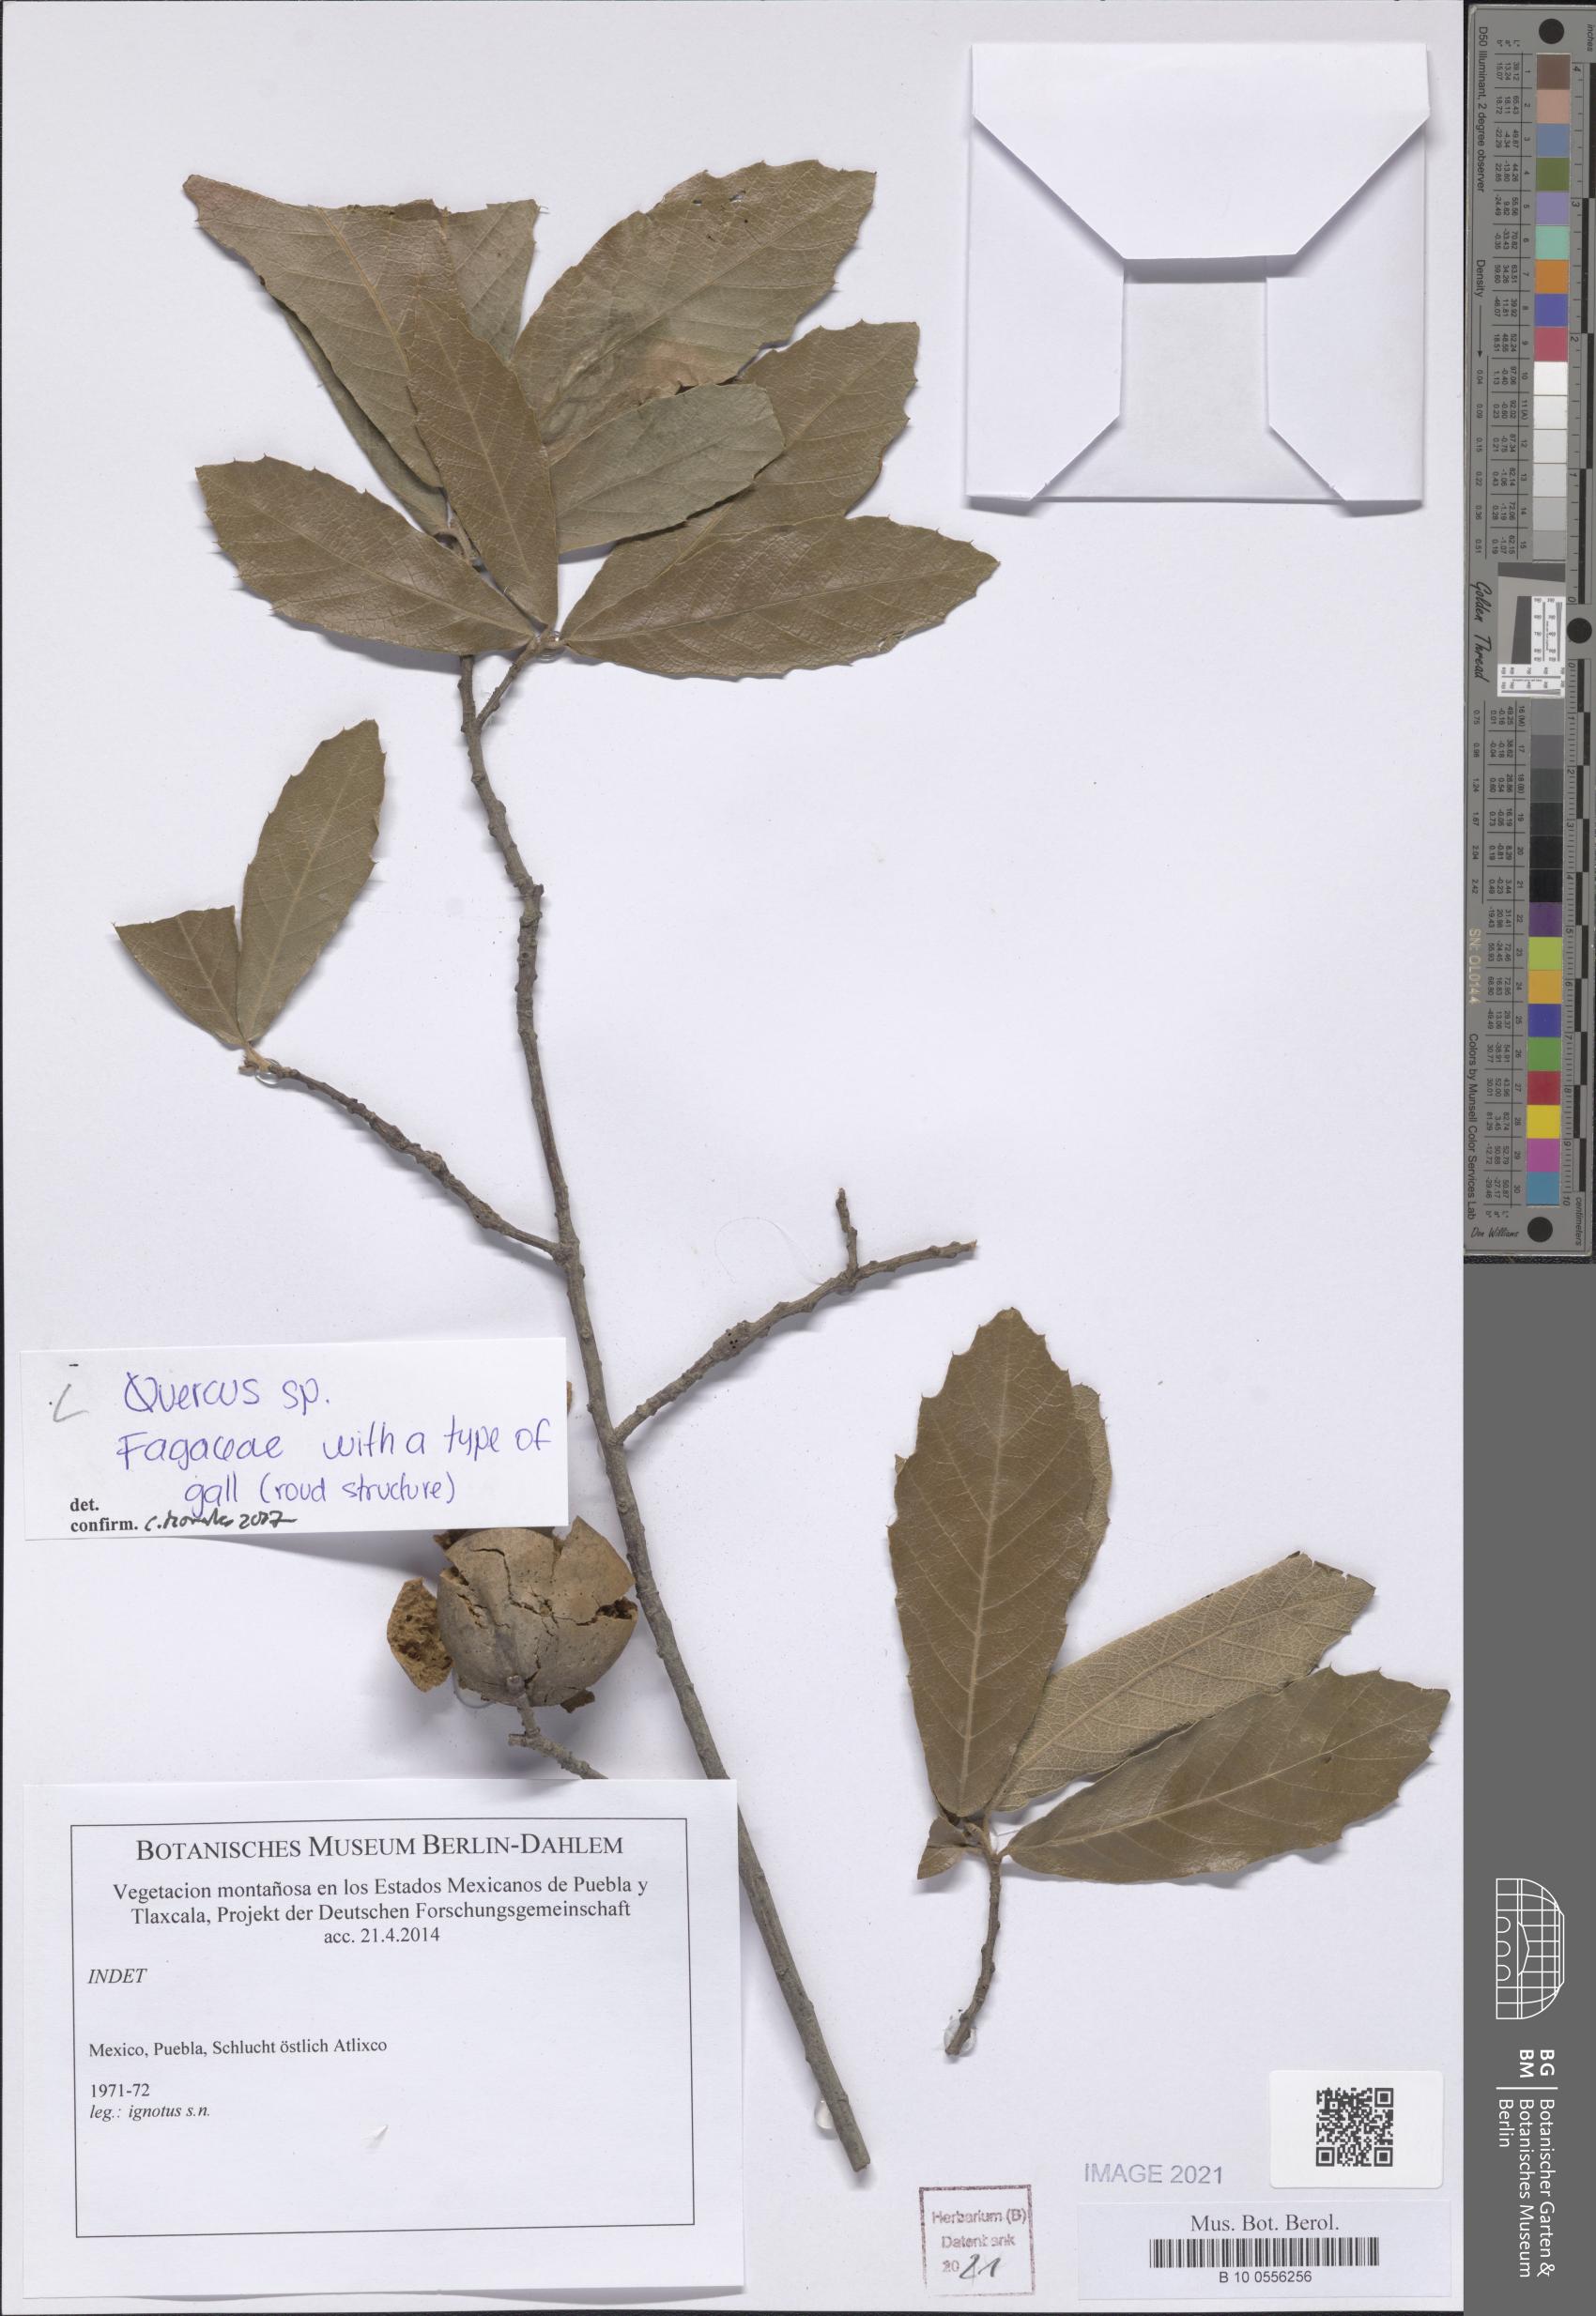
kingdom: Plantae
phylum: Tracheophyta
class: Magnoliopsida
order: Fagales
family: Fagaceae
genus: Quercus
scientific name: Quercus
